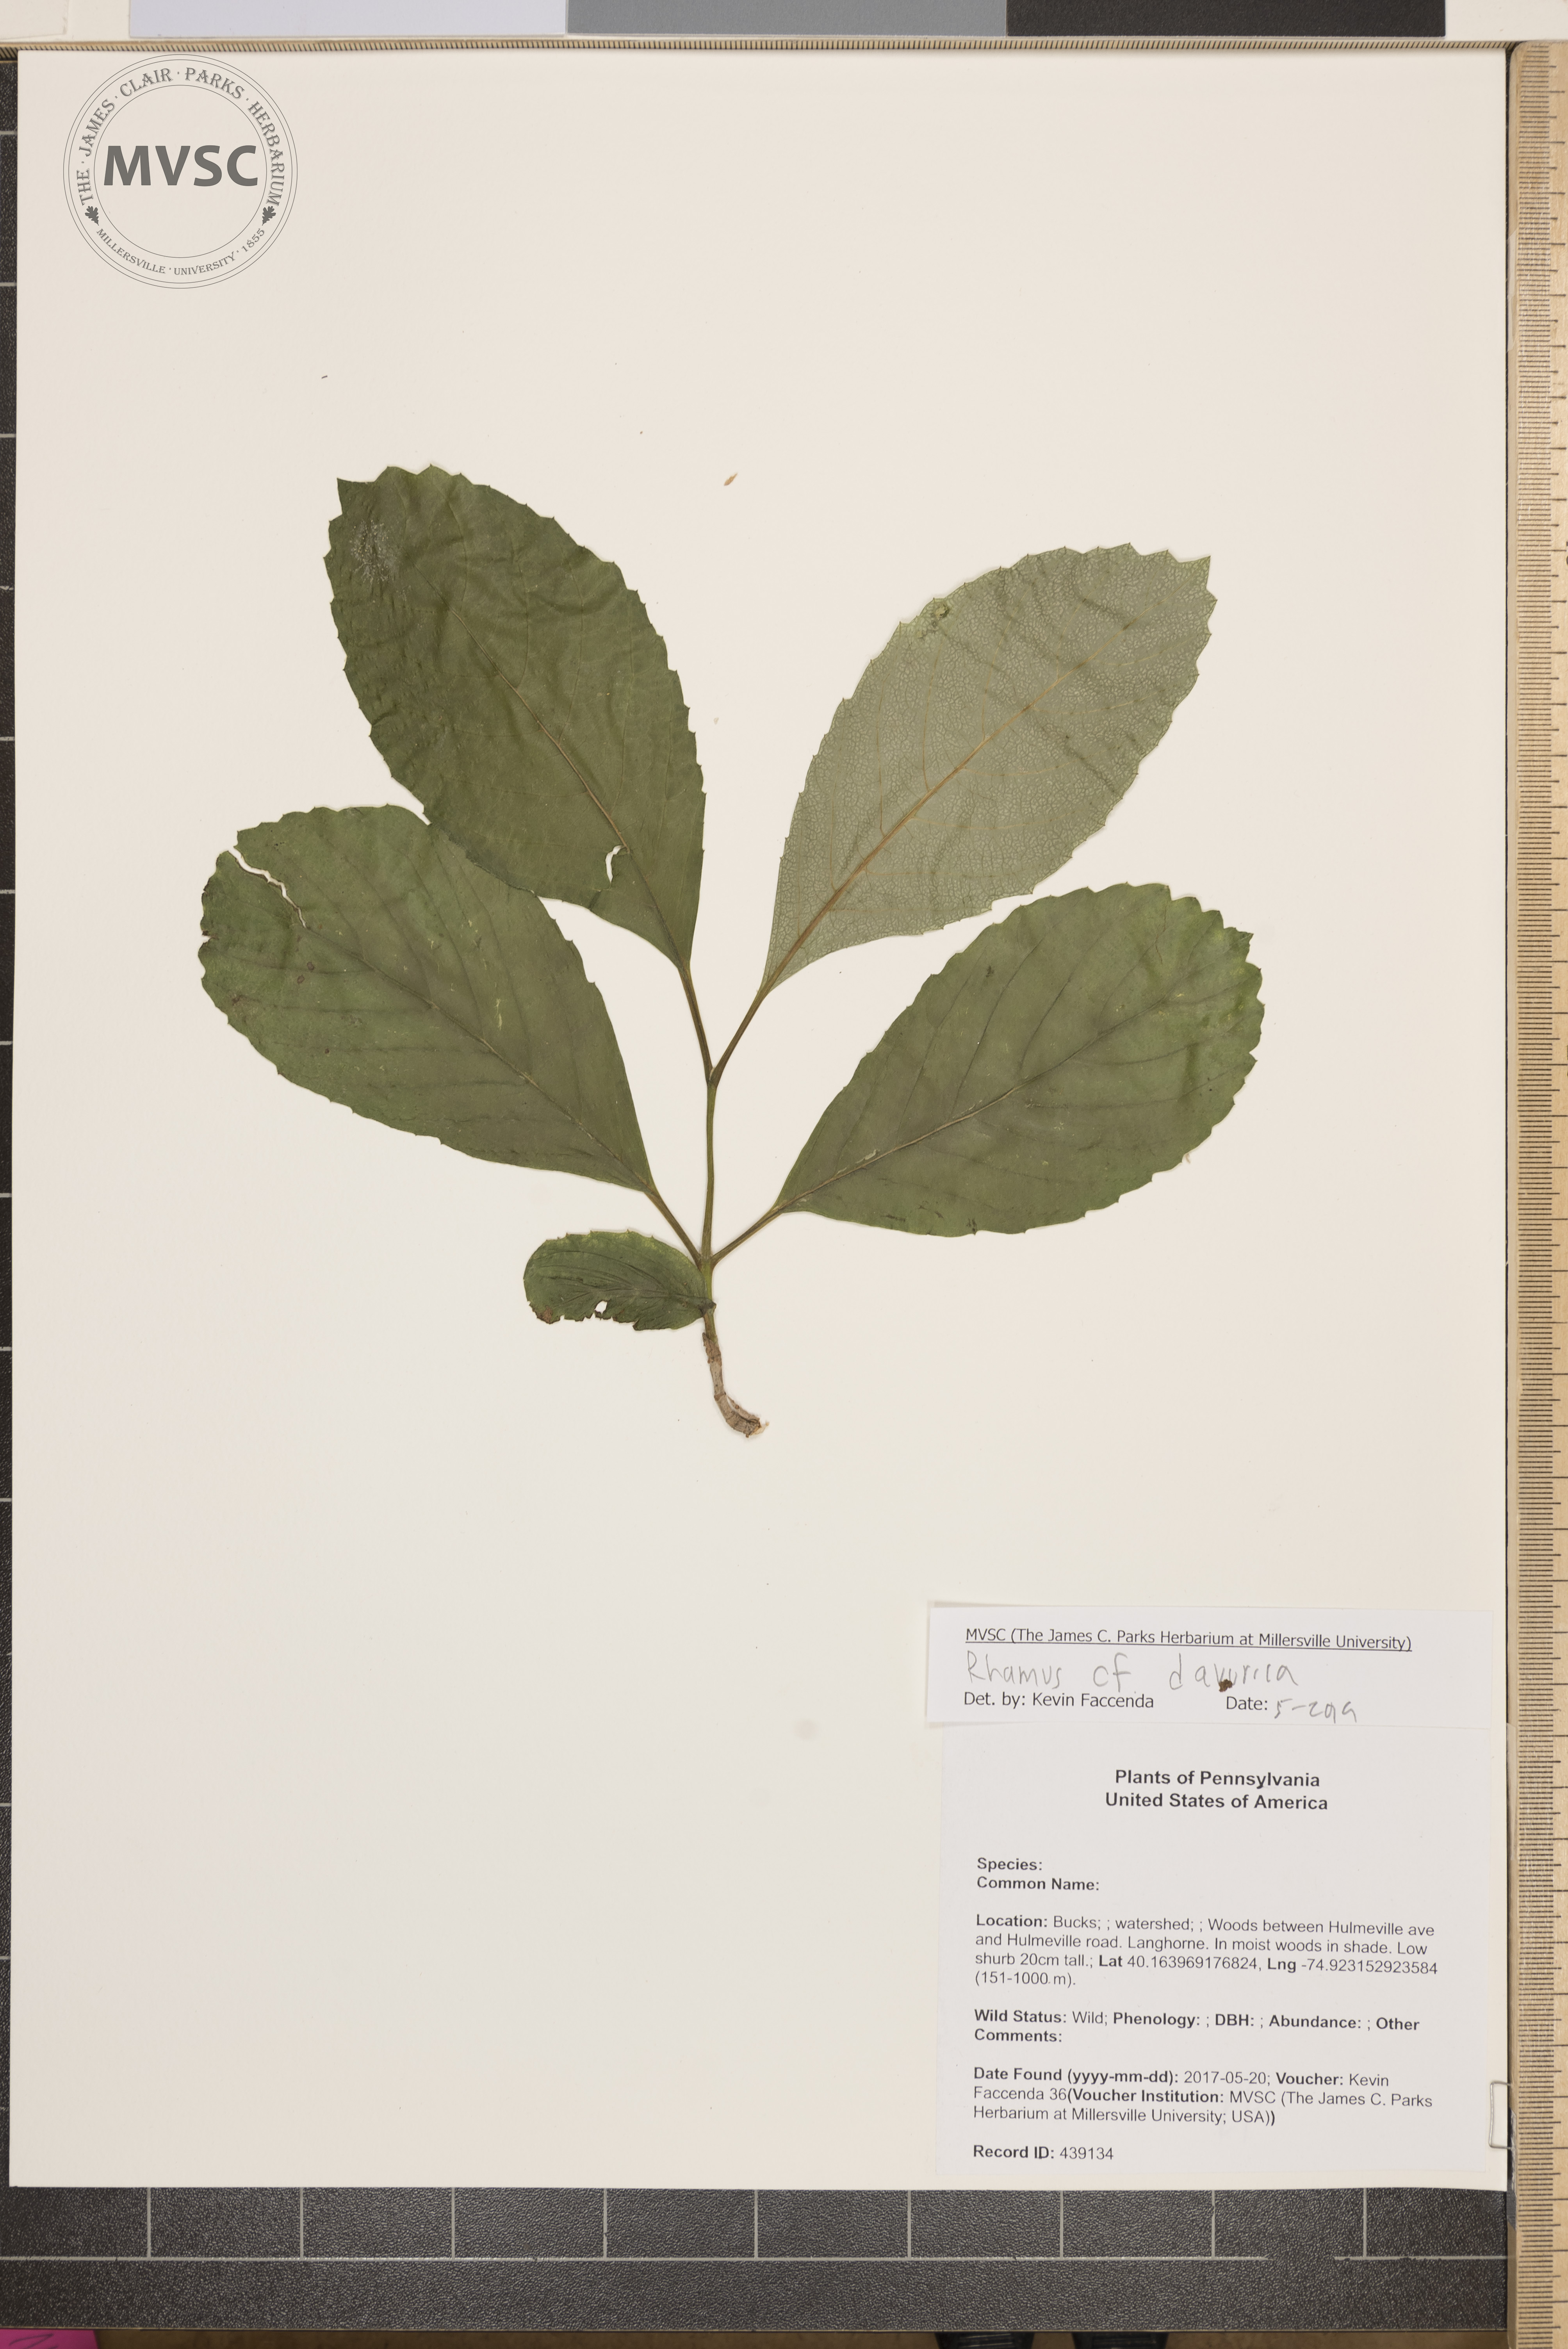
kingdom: Plantae
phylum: Tracheophyta
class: Magnoliopsida
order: Rosales
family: Rhamnaceae
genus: Rhamnus
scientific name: Rhamnus virgata
